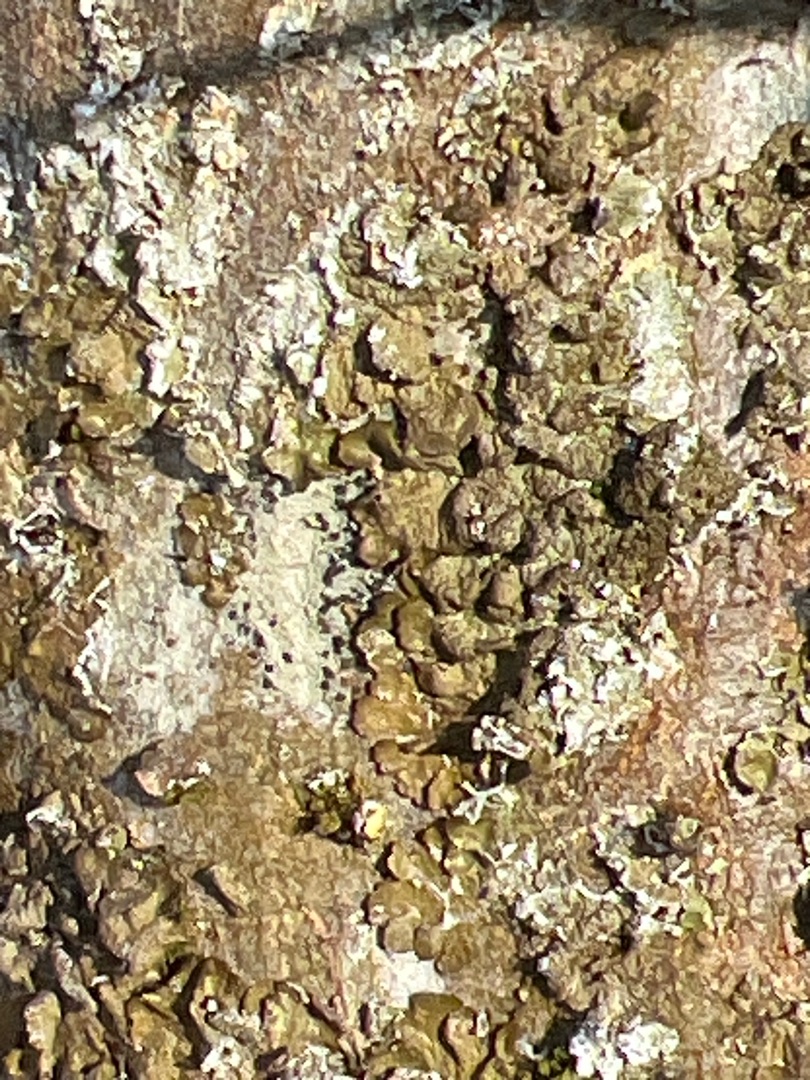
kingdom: Fungi
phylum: Ascomycota
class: Lecanoromycetes
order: Lecanorales
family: Parmeliaceae
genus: Melanelixia
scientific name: Melanelixia
